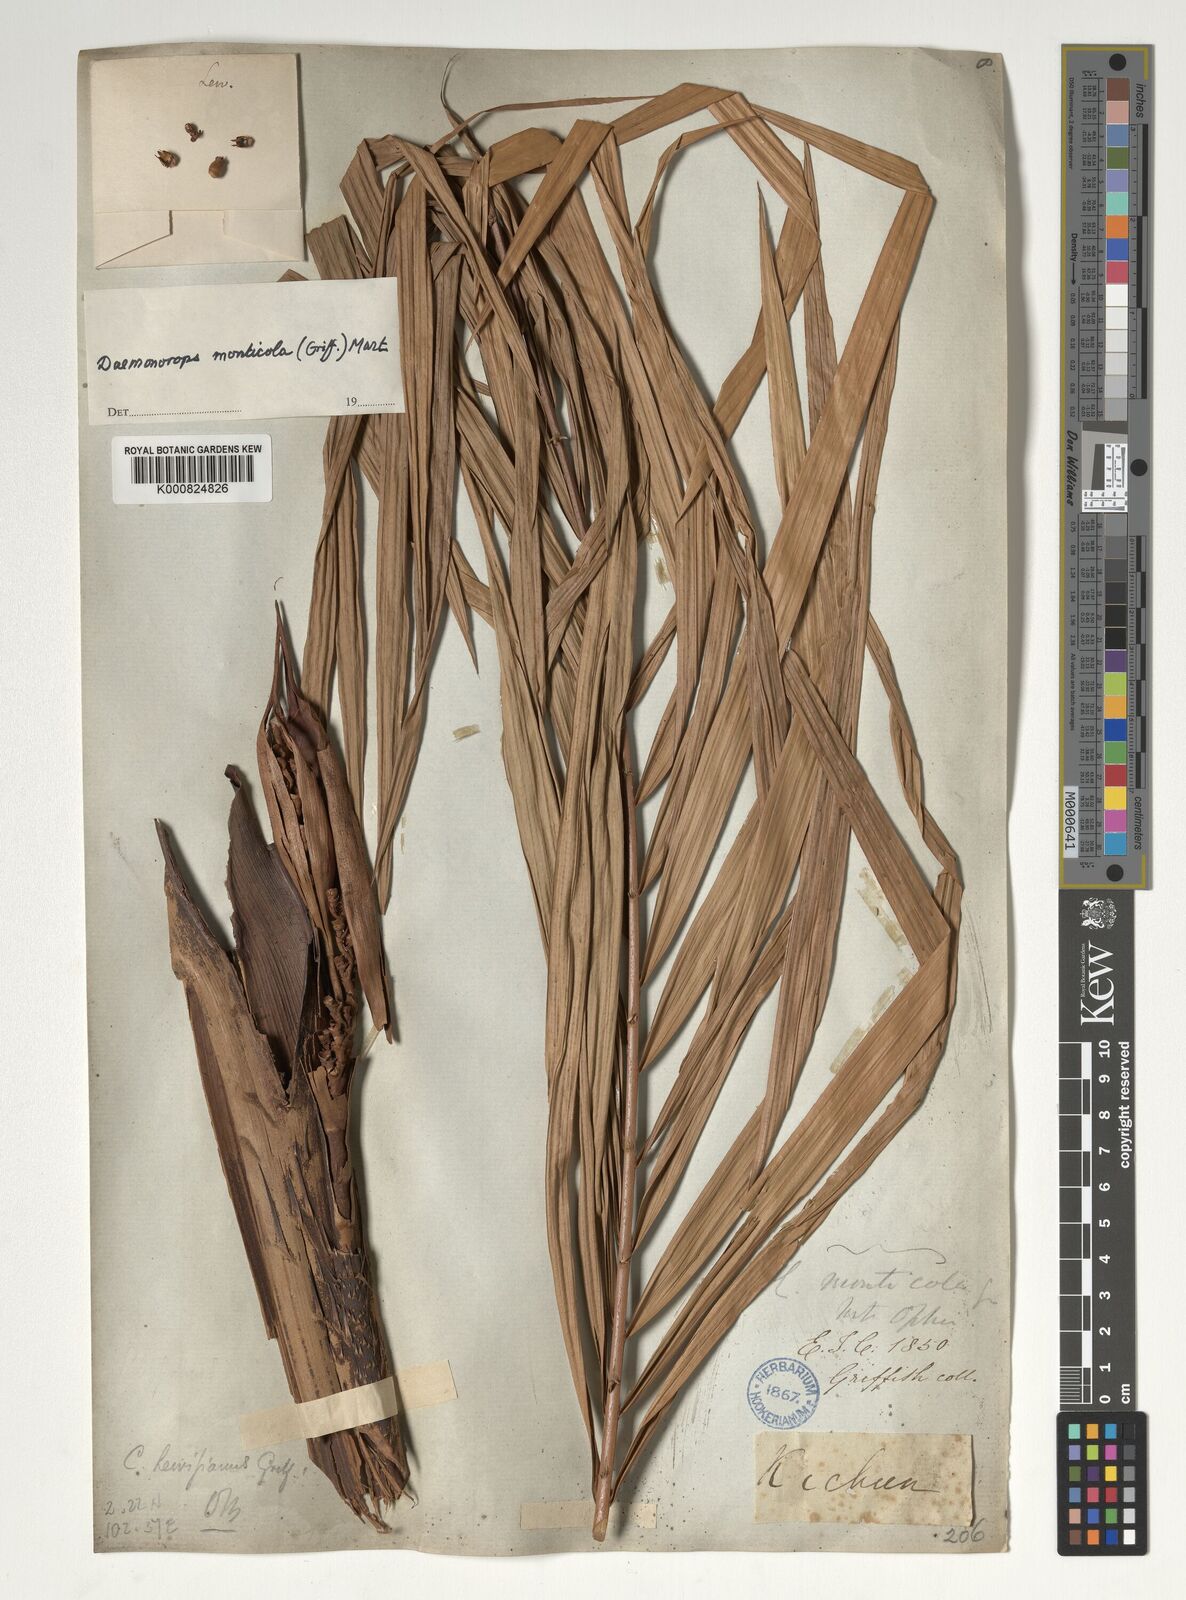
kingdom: Plantae
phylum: Tracheophyta
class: Liliopsida
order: Arecales
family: Arecaceae
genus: Calamus
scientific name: Calamus melanochaetes
